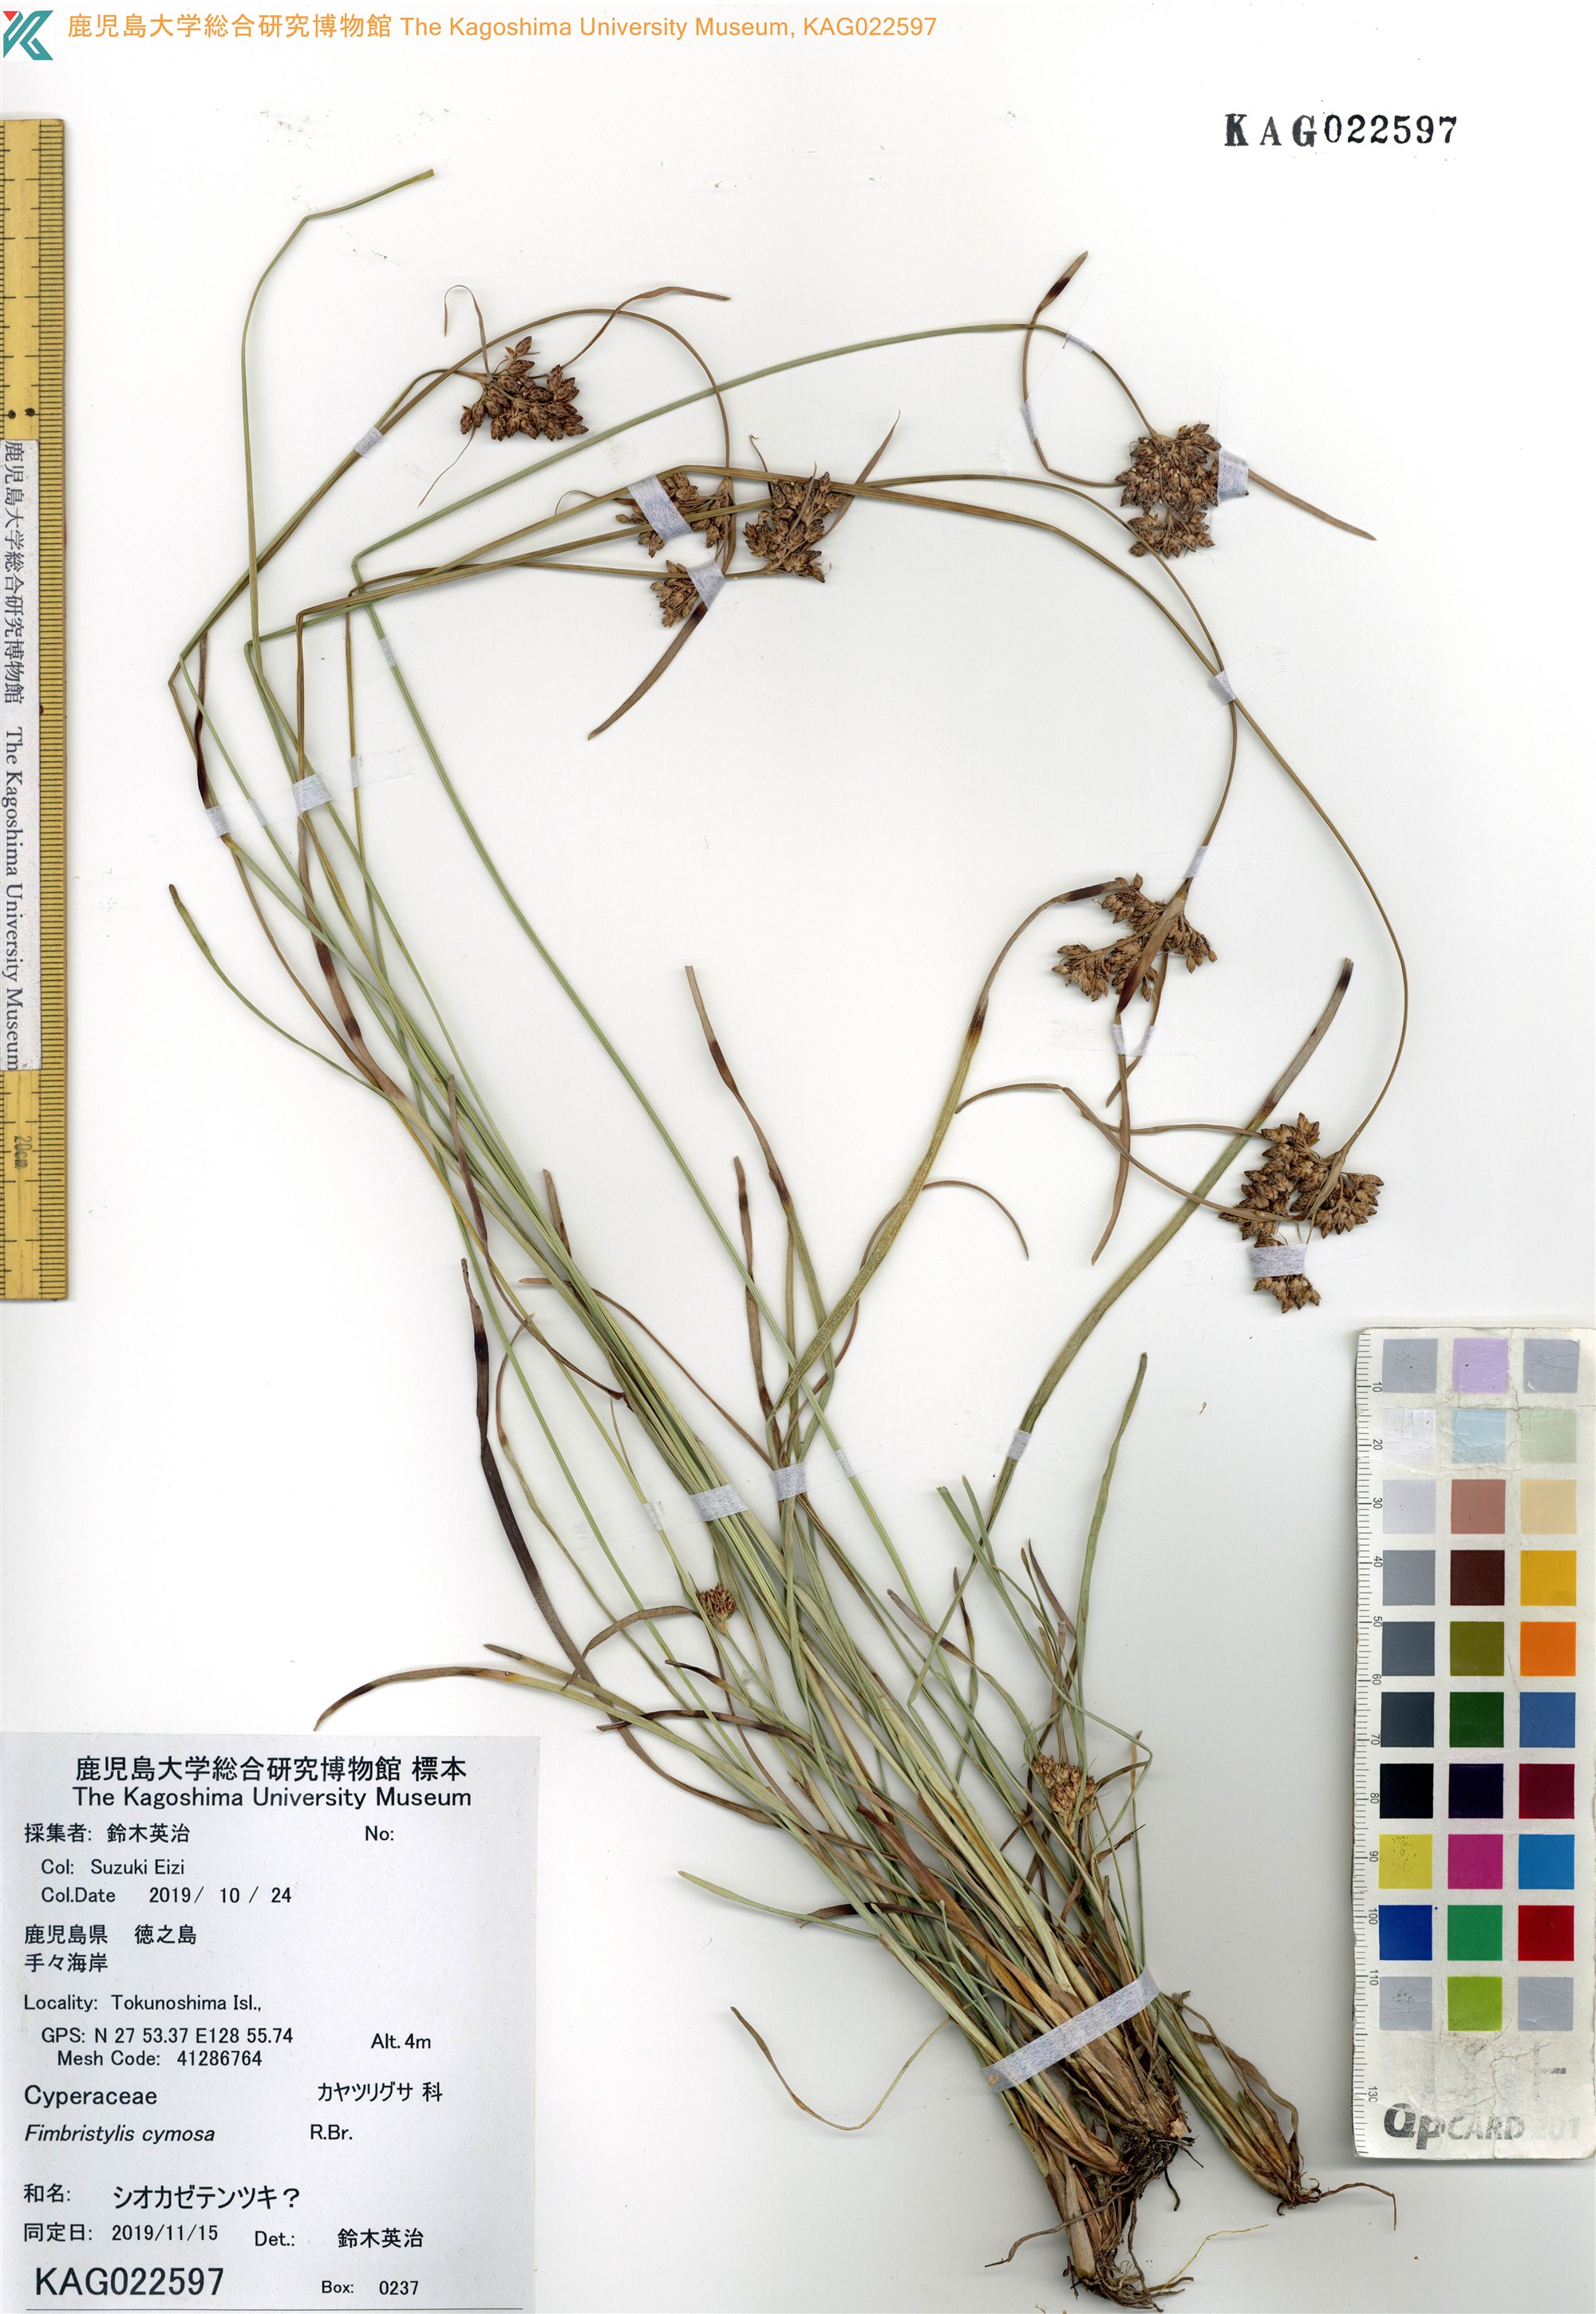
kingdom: Plantae
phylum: Tracheophyta
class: Liliopsida
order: Poales
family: Cyperaceae
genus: Fimbristylis
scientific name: Fimbristylis
